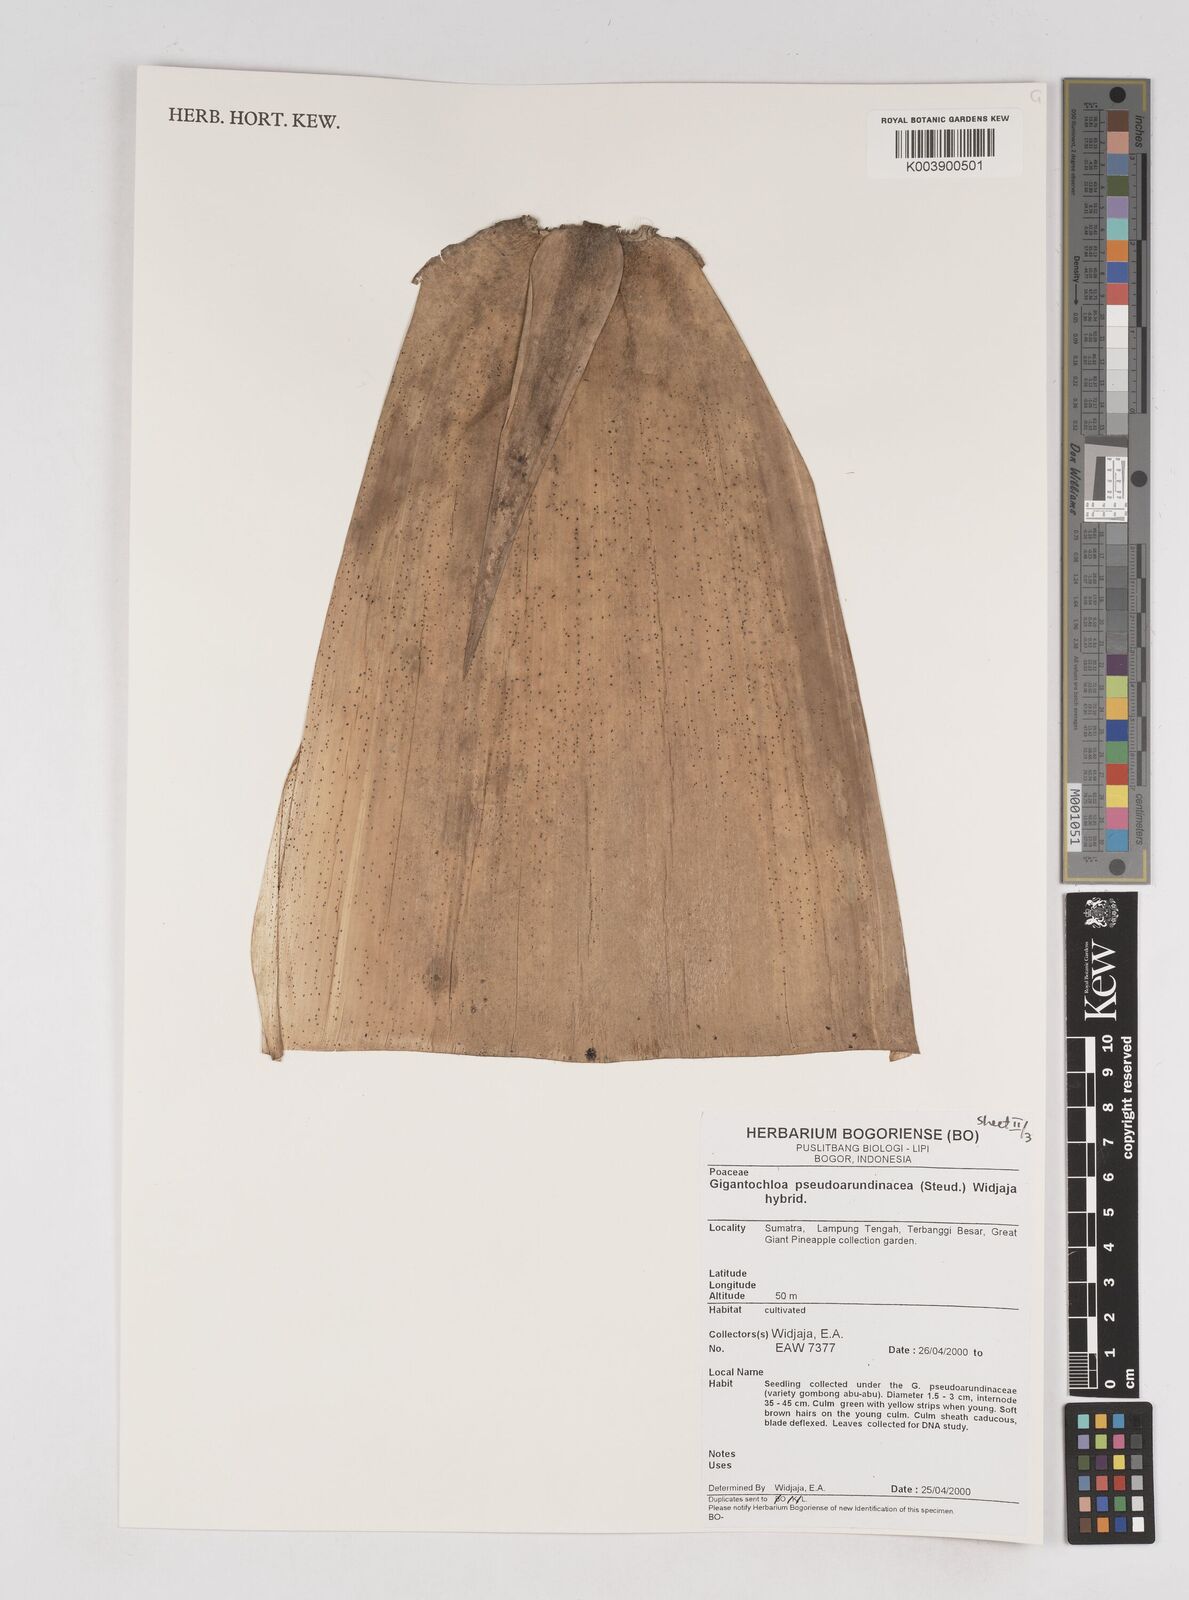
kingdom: Plantae
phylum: Tracheophyta
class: Liliopsida
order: Poales
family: Poaceae
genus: Gigantochloa
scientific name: Gigantochloa verticillata
